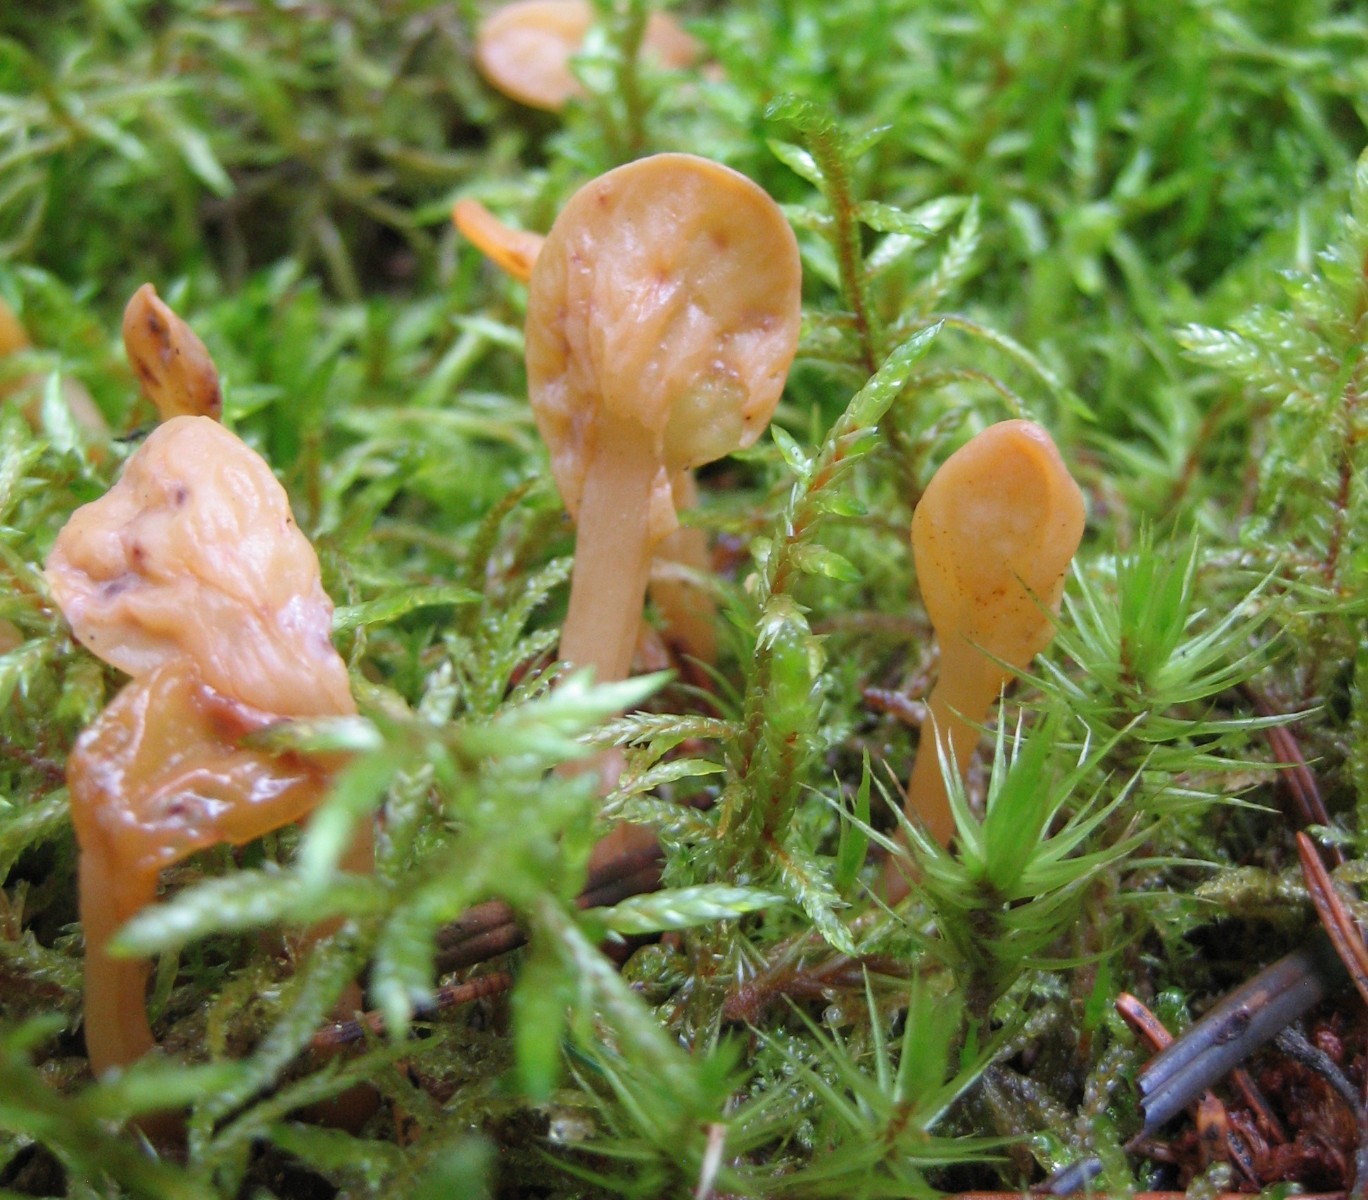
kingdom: Fungi
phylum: Ascomycota
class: Leotiomycetes
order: Rhytismatales
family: Cudoniaceae
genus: Spathularia
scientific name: Spathularia flavida
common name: gul spatelsvamp
